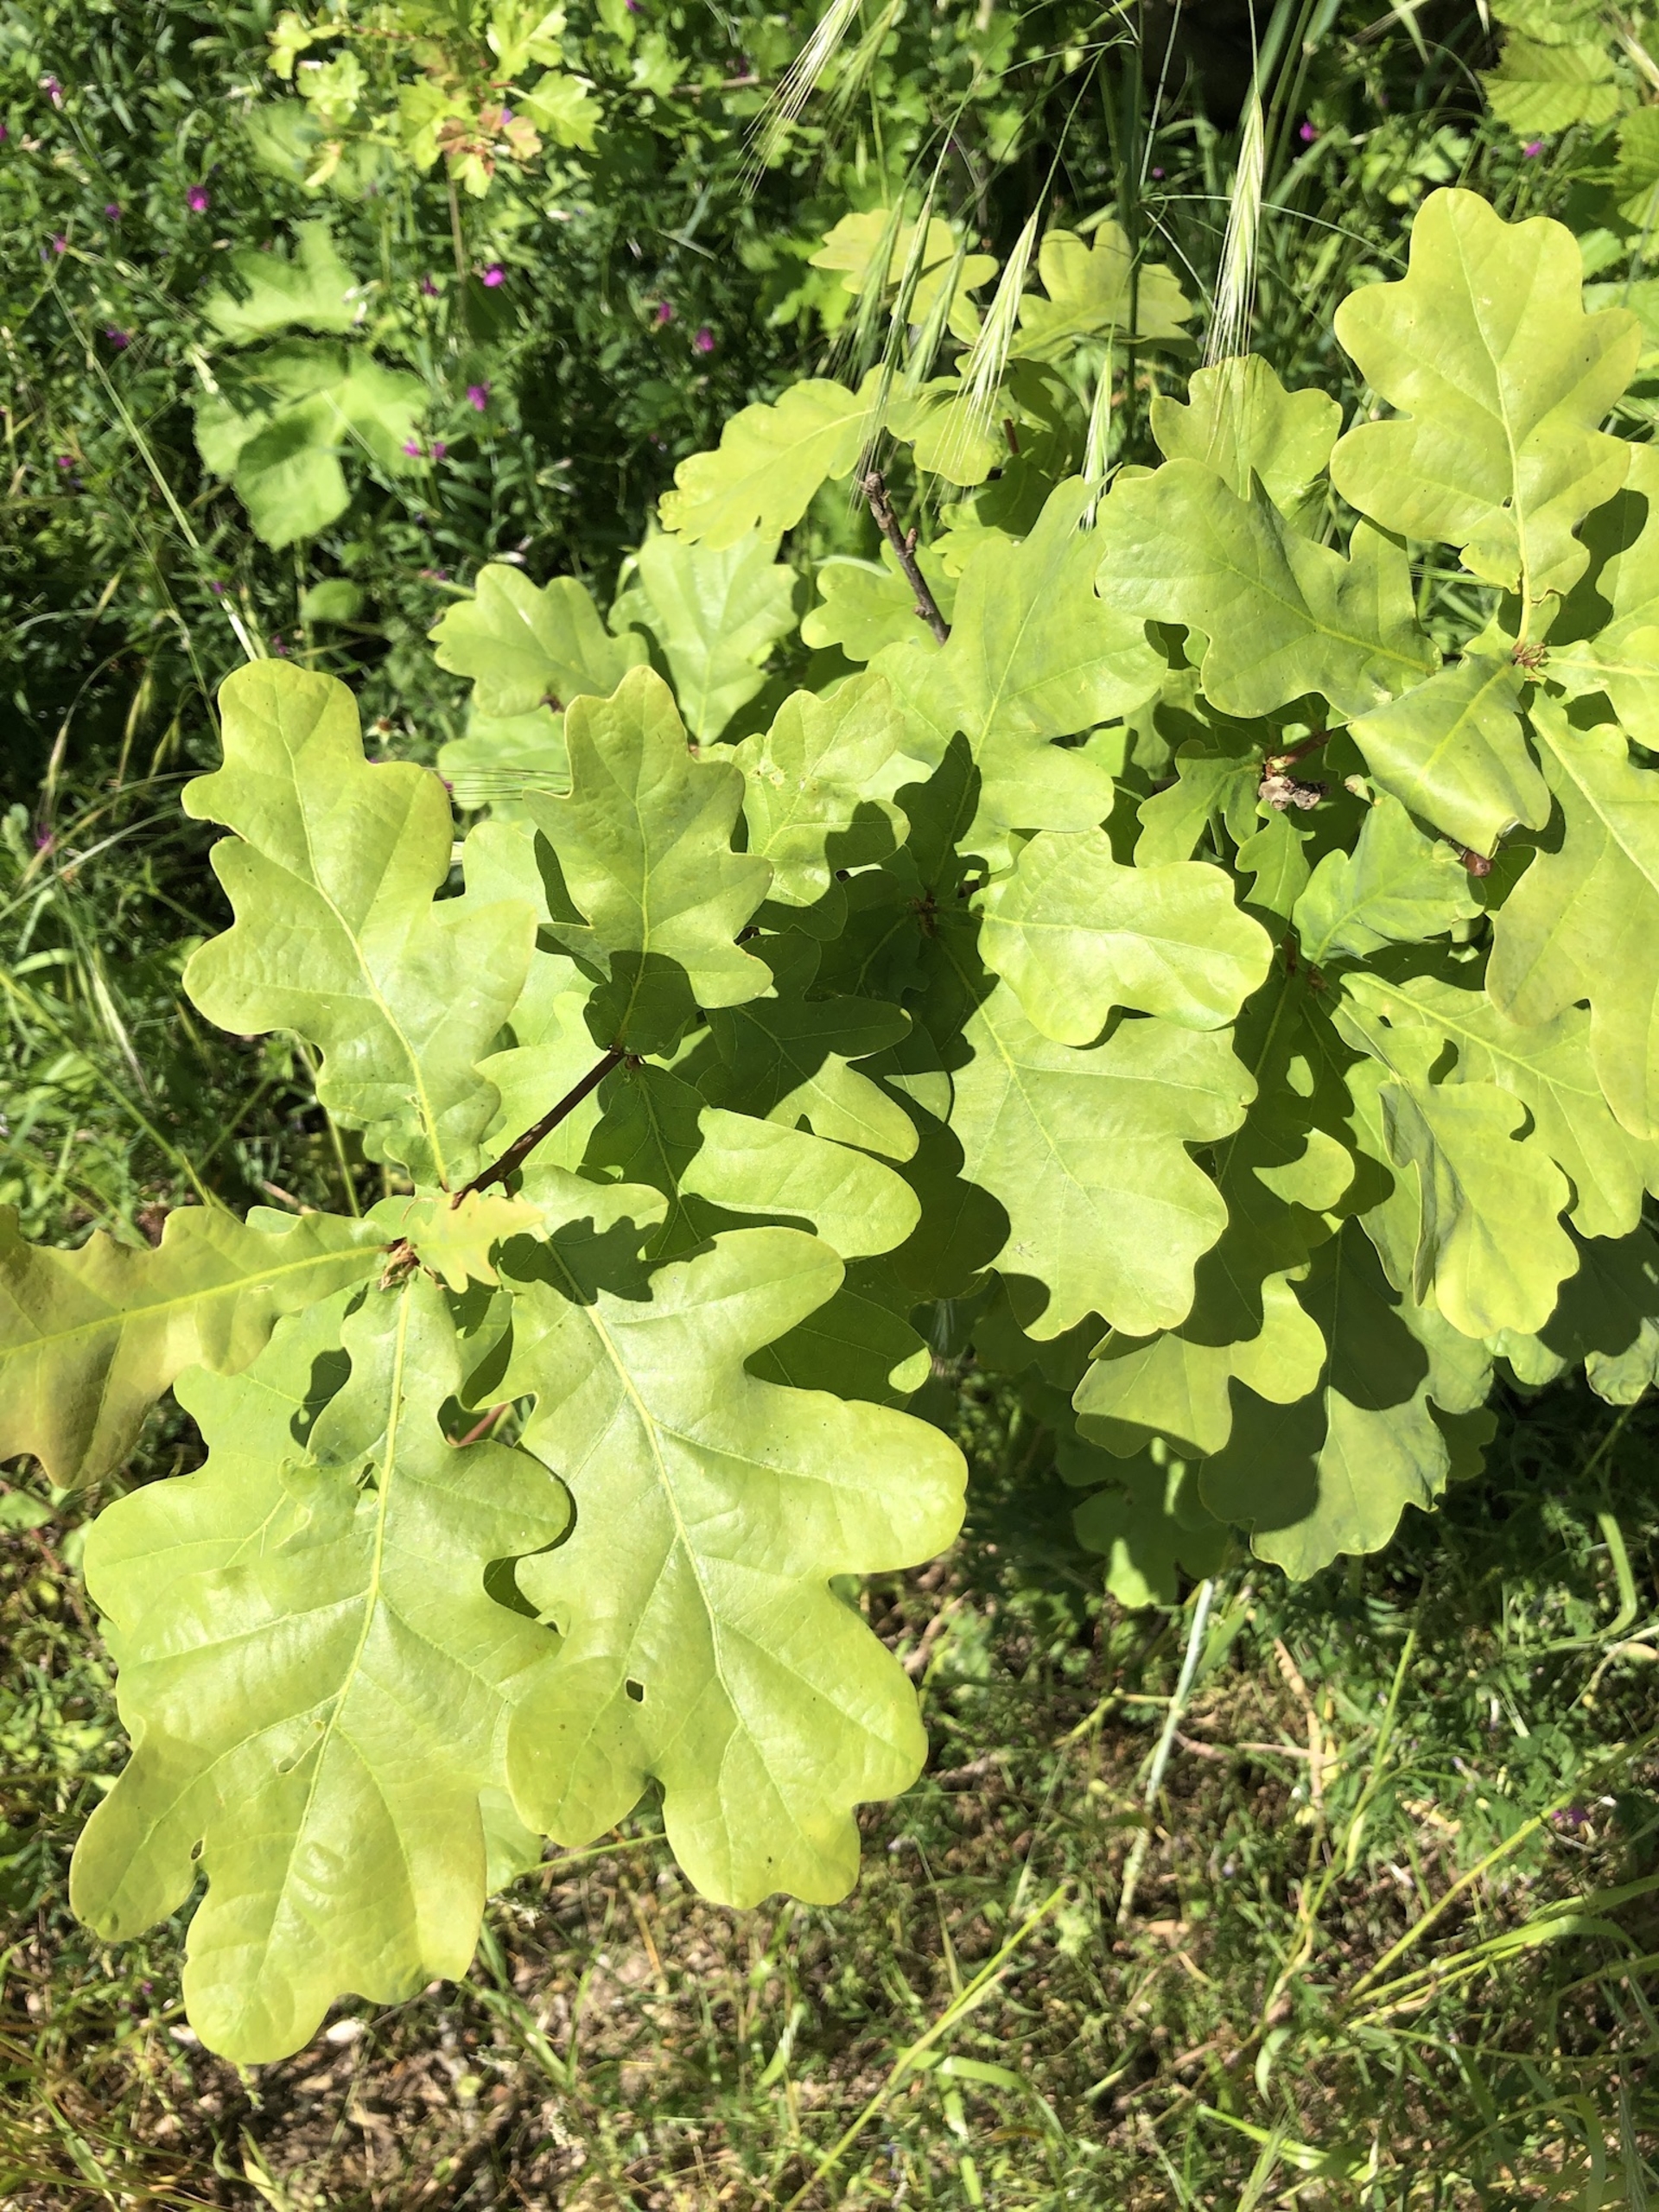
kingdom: Plantae
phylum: Tracheophyta
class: Magnoliopsida
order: Fagales
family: Fagaceae
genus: Quercus
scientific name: Quercus robur
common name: Stilk-eg/almindelig eg
